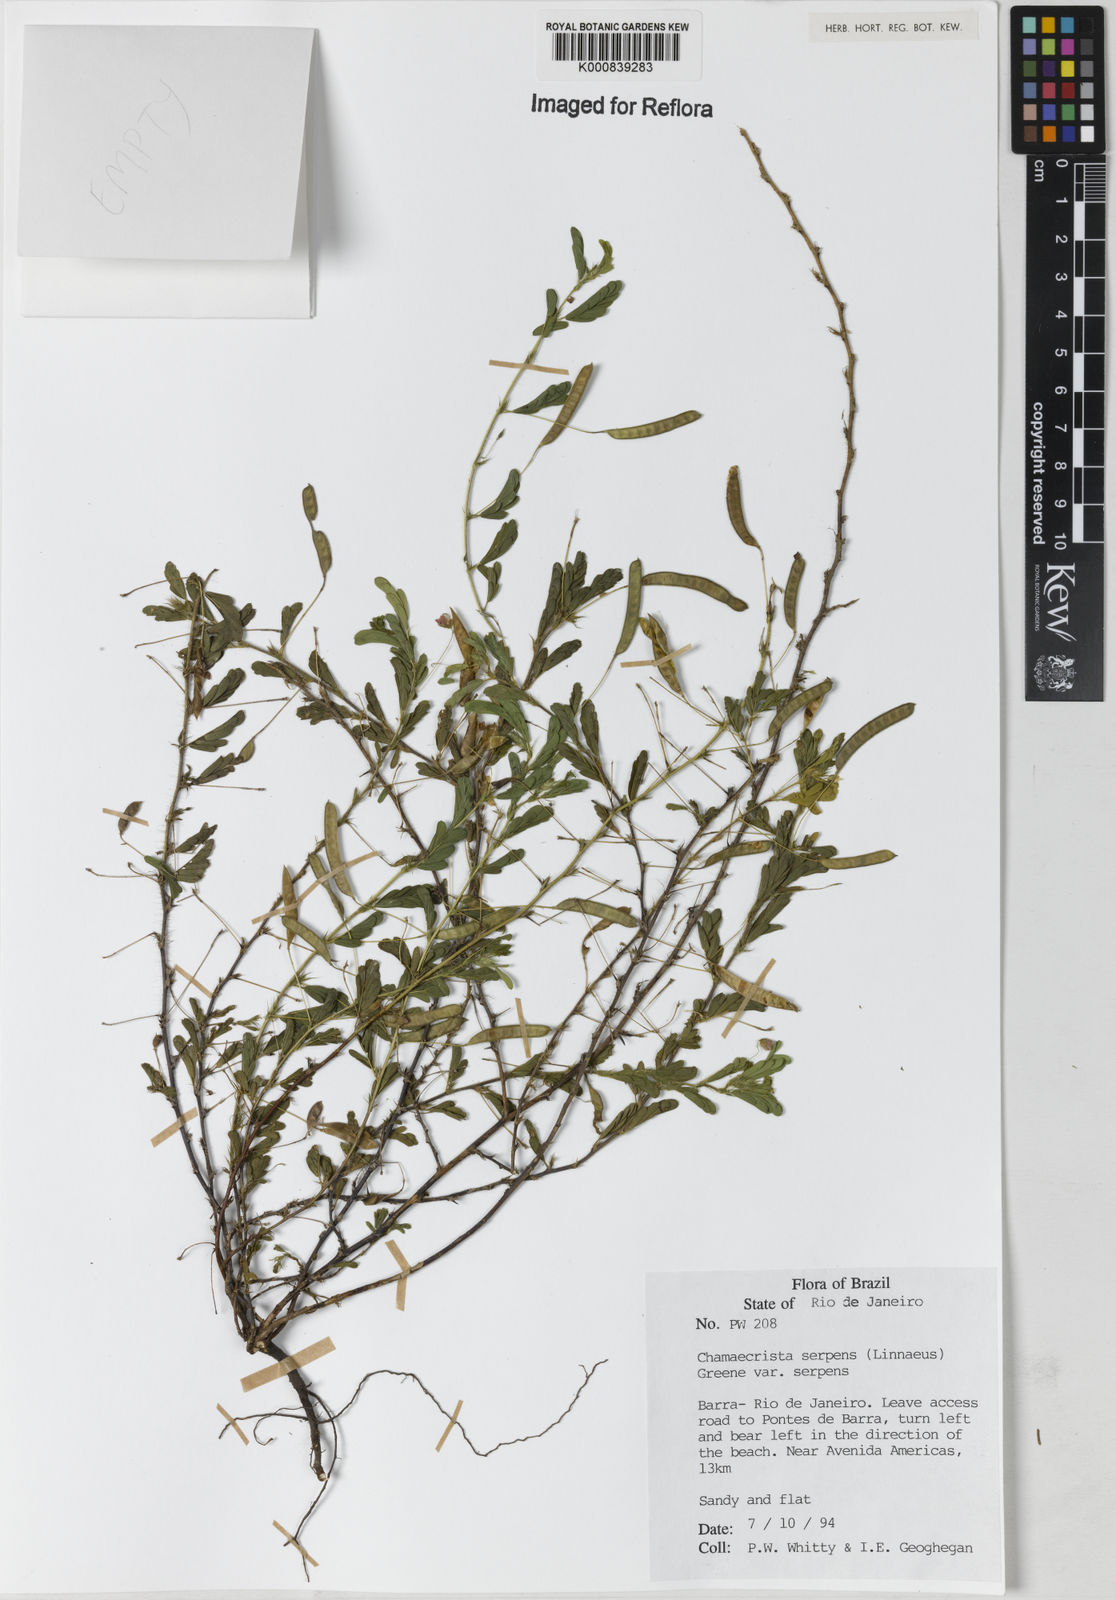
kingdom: Plantae
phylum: Tracheophyta
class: Magnoliopsida
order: Fabales
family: Fabaceae
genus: Chamaecrista
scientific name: Chamaecrista serpens
